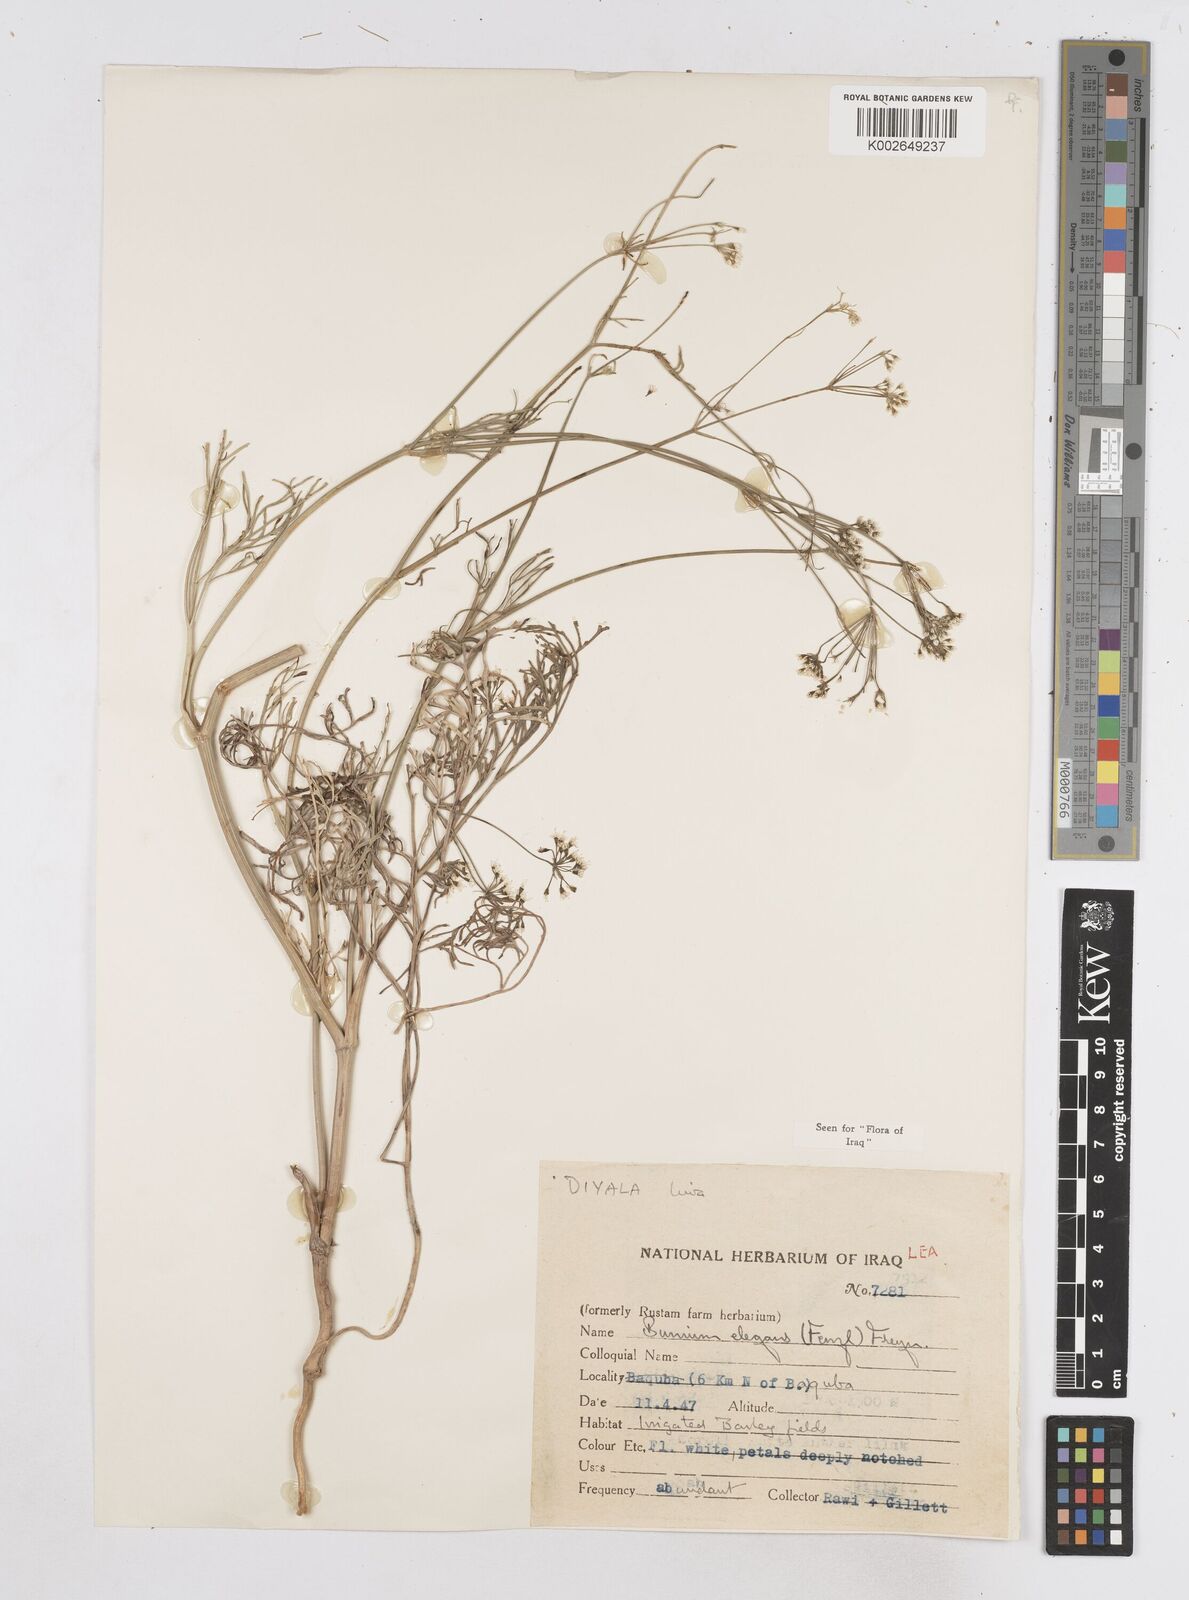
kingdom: Plantae
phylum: Tracheophyta
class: Magnoliopsida
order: Apiales
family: Apiaceae
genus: Bunium
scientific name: Bunium paucifolium
